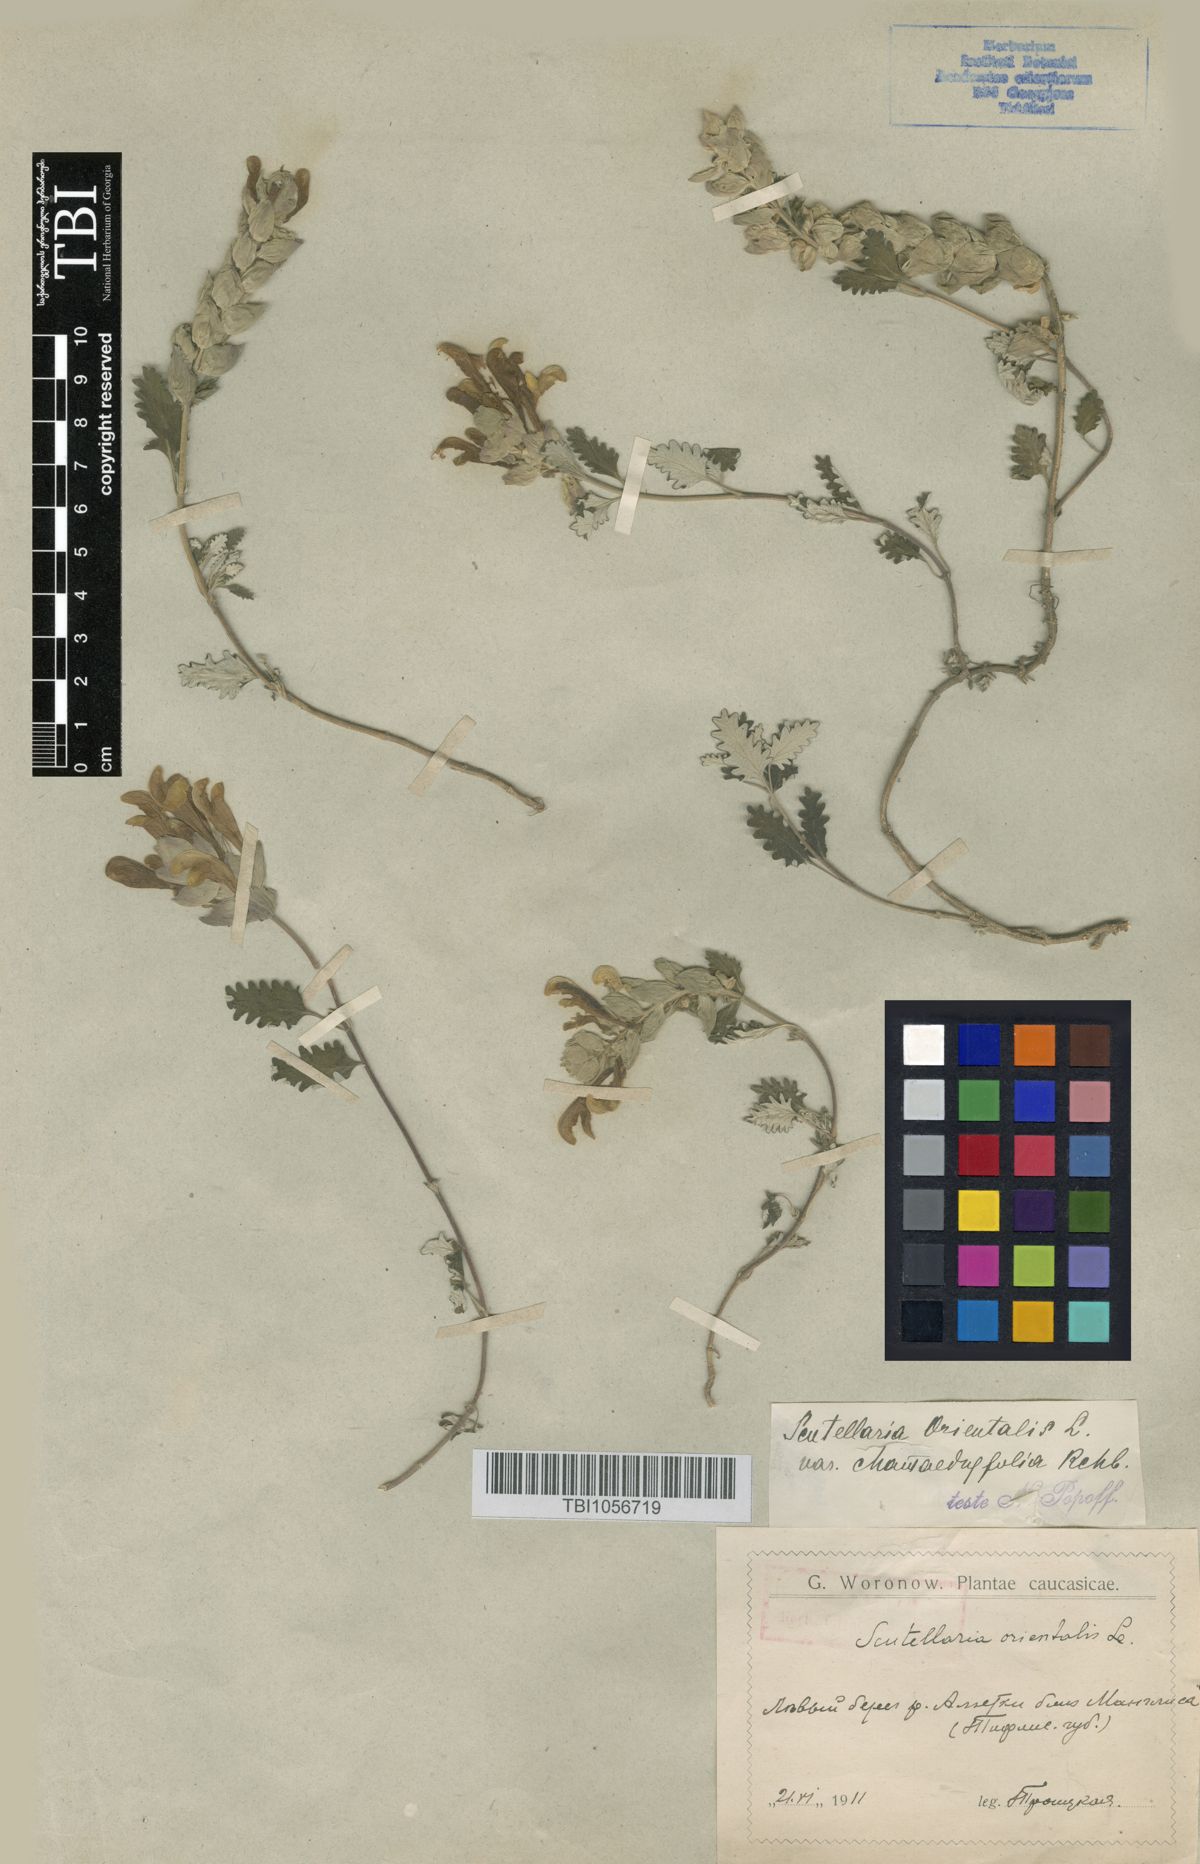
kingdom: Plantae
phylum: Tracheophyta
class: Magnoliopsida
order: Lamiales
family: Lamiaceae
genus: Scutellaria
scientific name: Scutellaria orientalis
